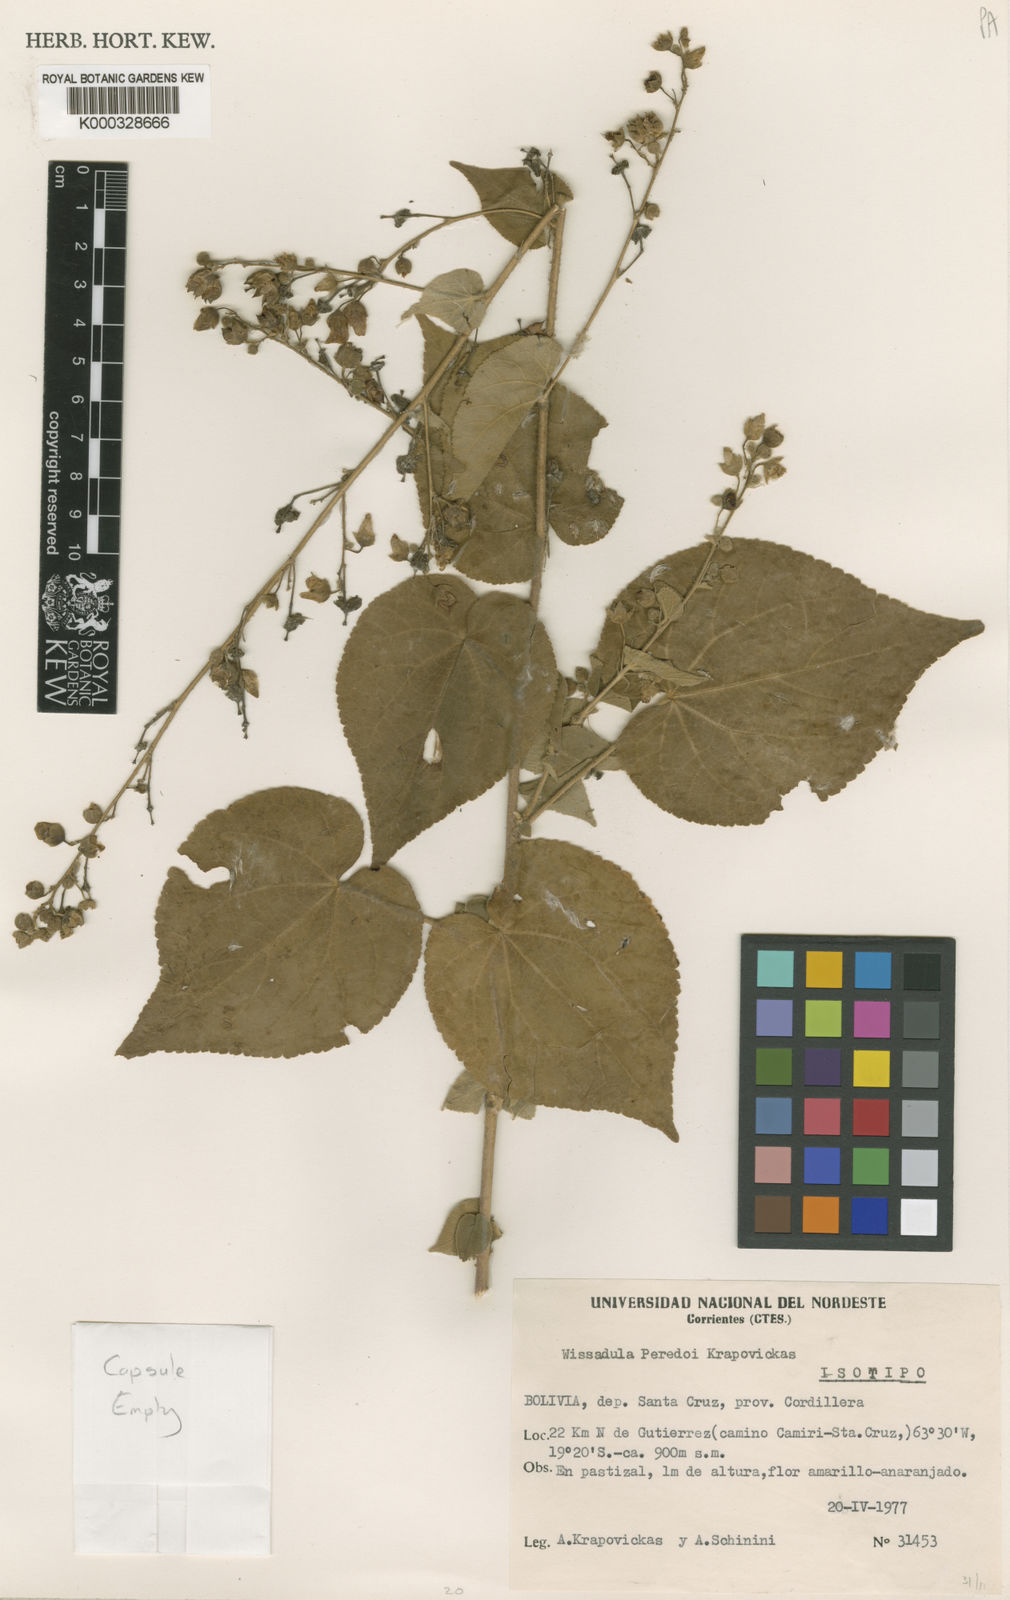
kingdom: Plantae
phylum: Tracheophyta
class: Magnoliopsida
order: Malvales
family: Malvaceae
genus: Wissadula
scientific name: Wissadula peredoi
